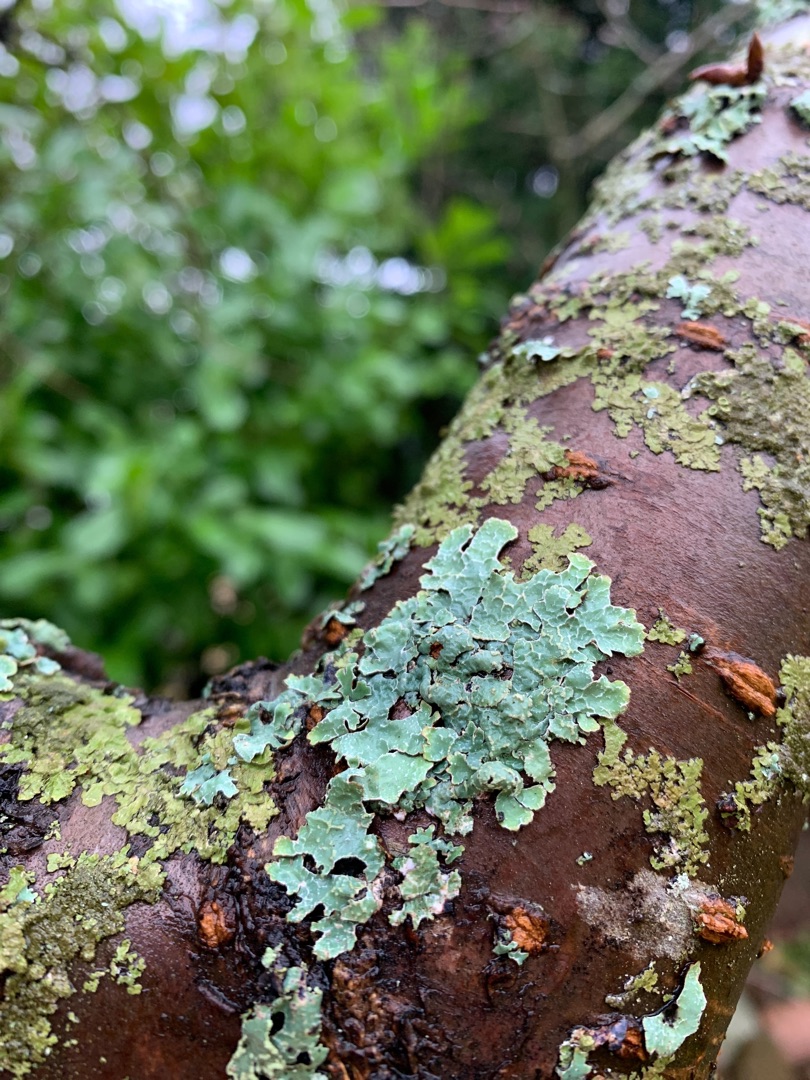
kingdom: Fungi
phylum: Ascomycota
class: Lecanoromycetes
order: Lecanorales
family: Parmeliaceae
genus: Parmelia
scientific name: Parmelia sulcata
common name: Rynket skållav
